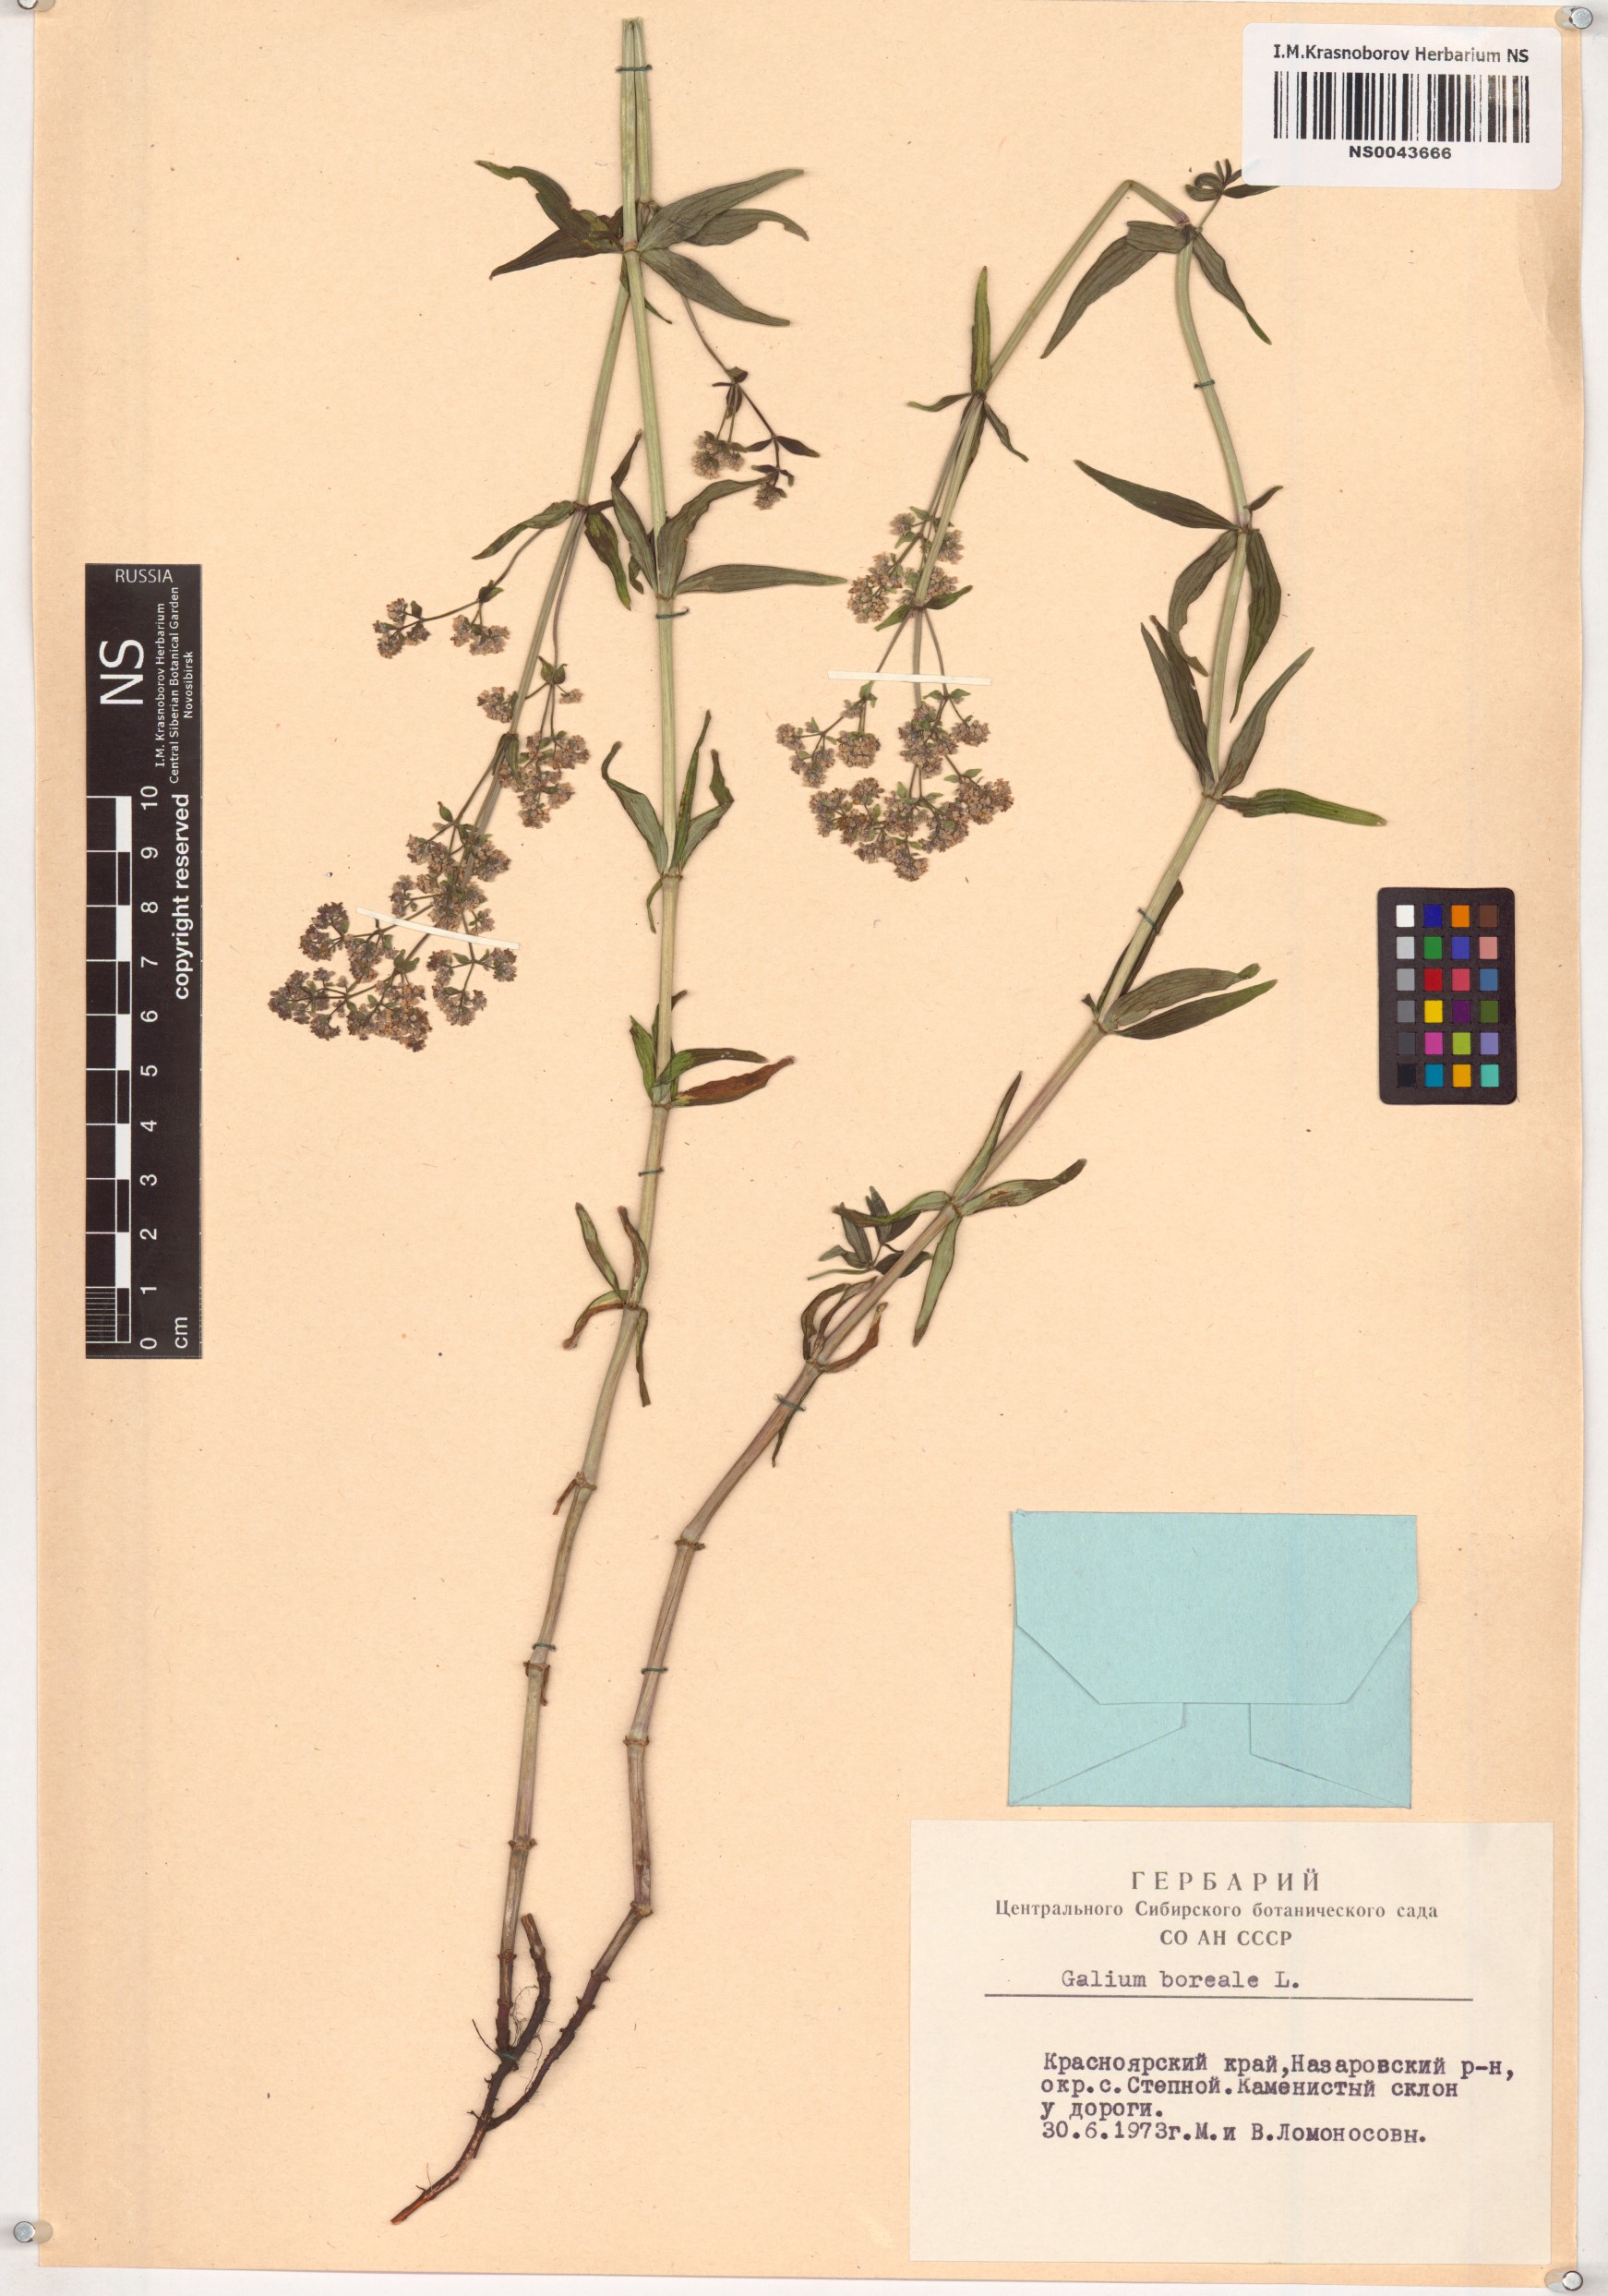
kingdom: Plantae
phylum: Tracheophyta
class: Magnoliopsida
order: Gentianales
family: Rubiaceae
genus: Galium
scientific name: Galium boreale
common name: Northern bedstraw
